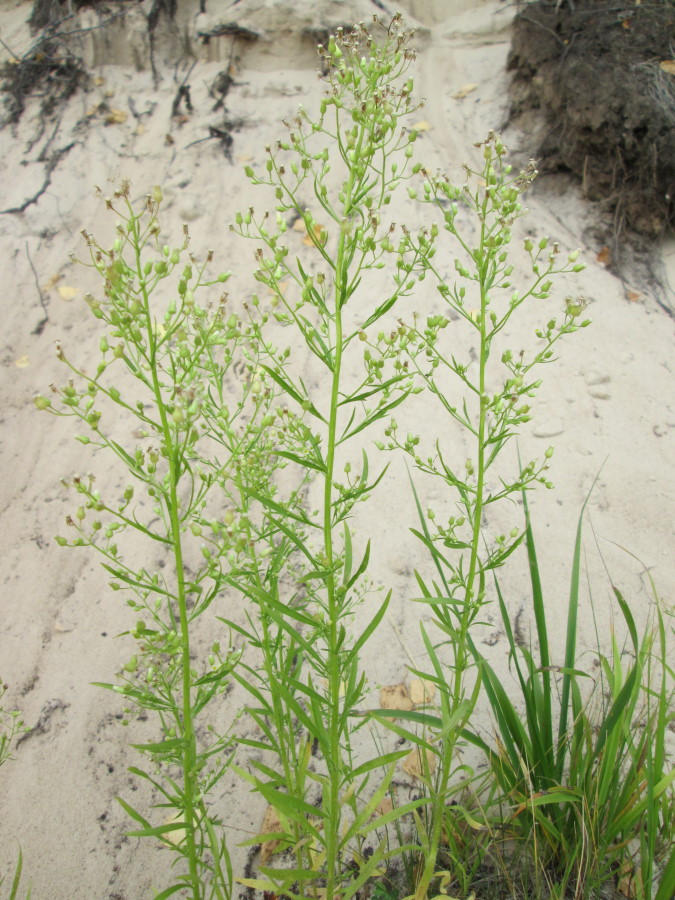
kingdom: Plantae
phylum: Tracheophyta
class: Magnoliopsida
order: Asterales
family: Asteraceae
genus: Erigeron
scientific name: Erigeron canadensis
